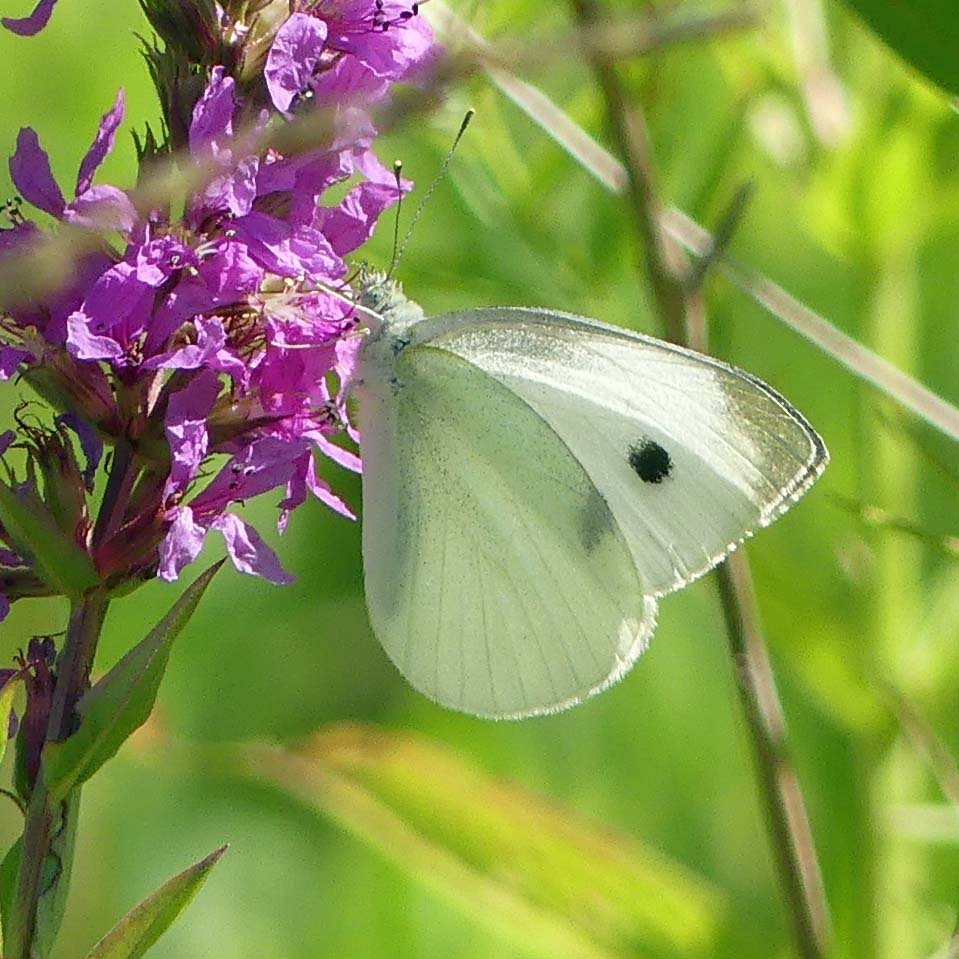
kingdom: Animalia
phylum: Arthropoda
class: Insecta
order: Lepidoptera
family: Pieridae
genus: Pieris
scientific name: Pieris rapae
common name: Cabbage White
